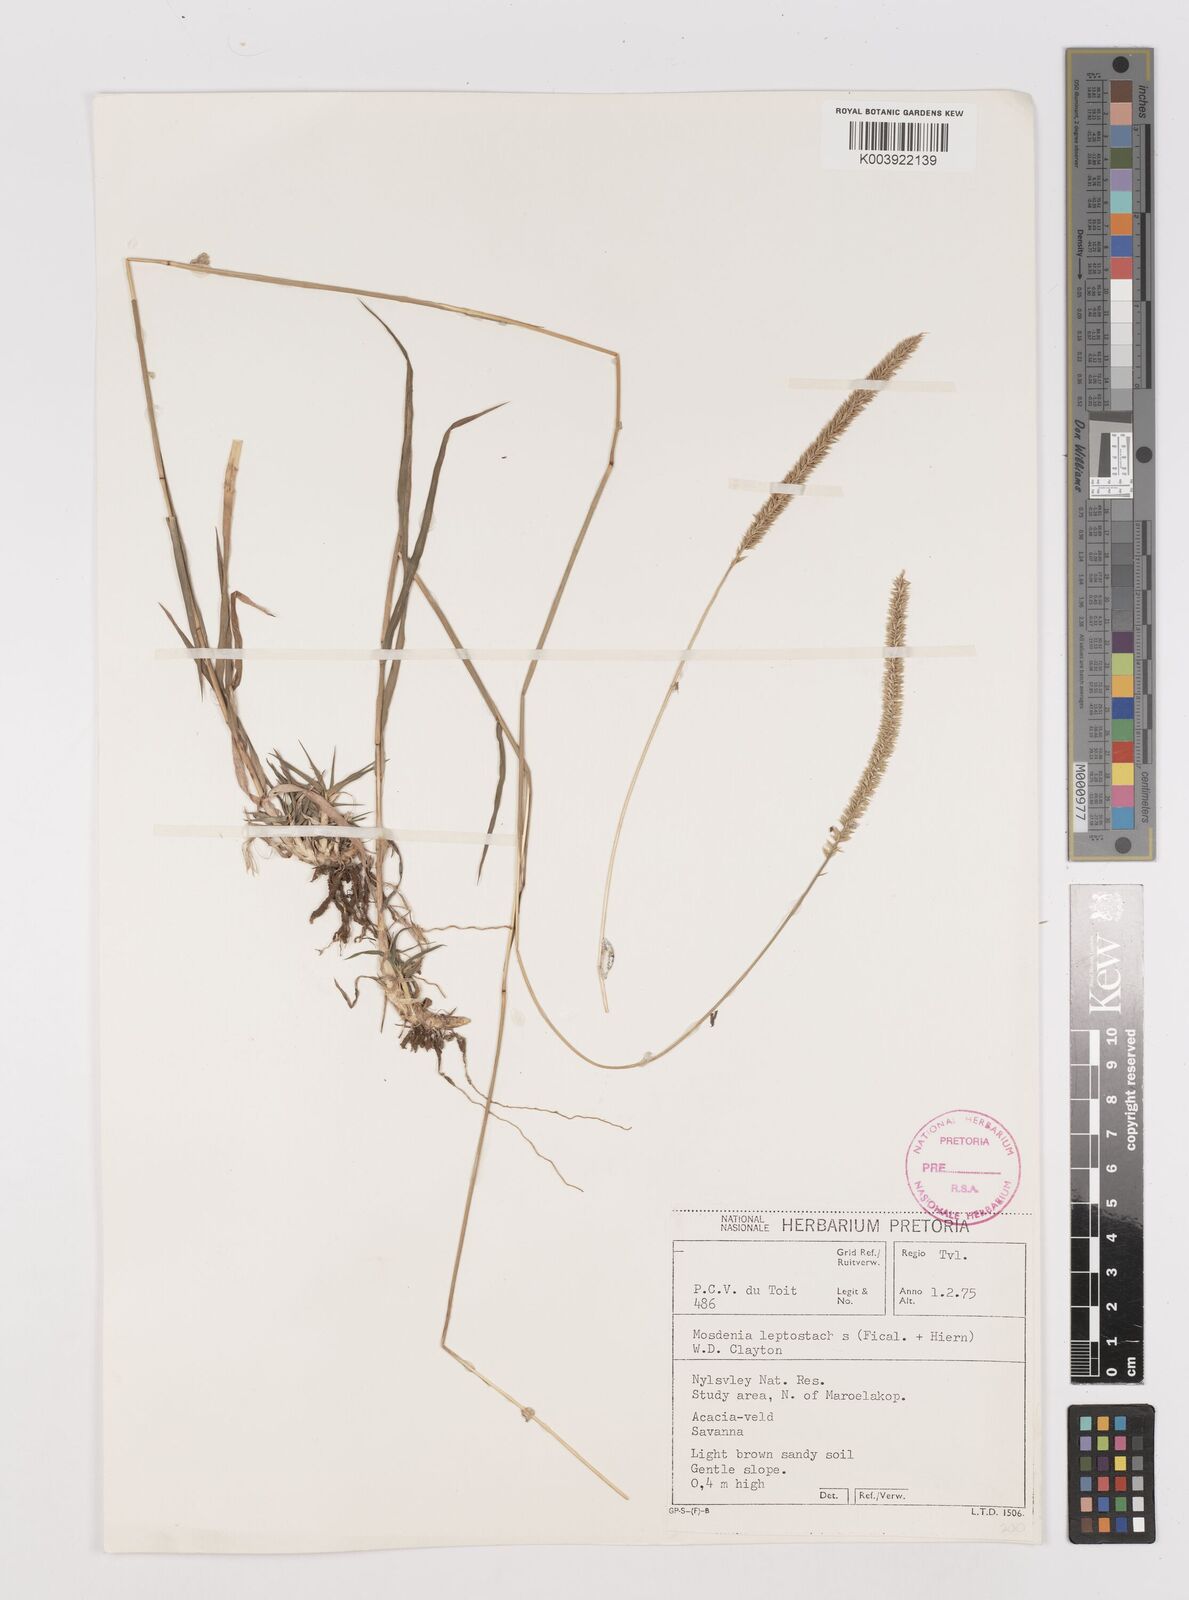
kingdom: Plantae
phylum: Tracheophyta
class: Liliopsida
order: Poales
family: Poaceae
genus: Mosdenia
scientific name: Mosdenia leptostachys
